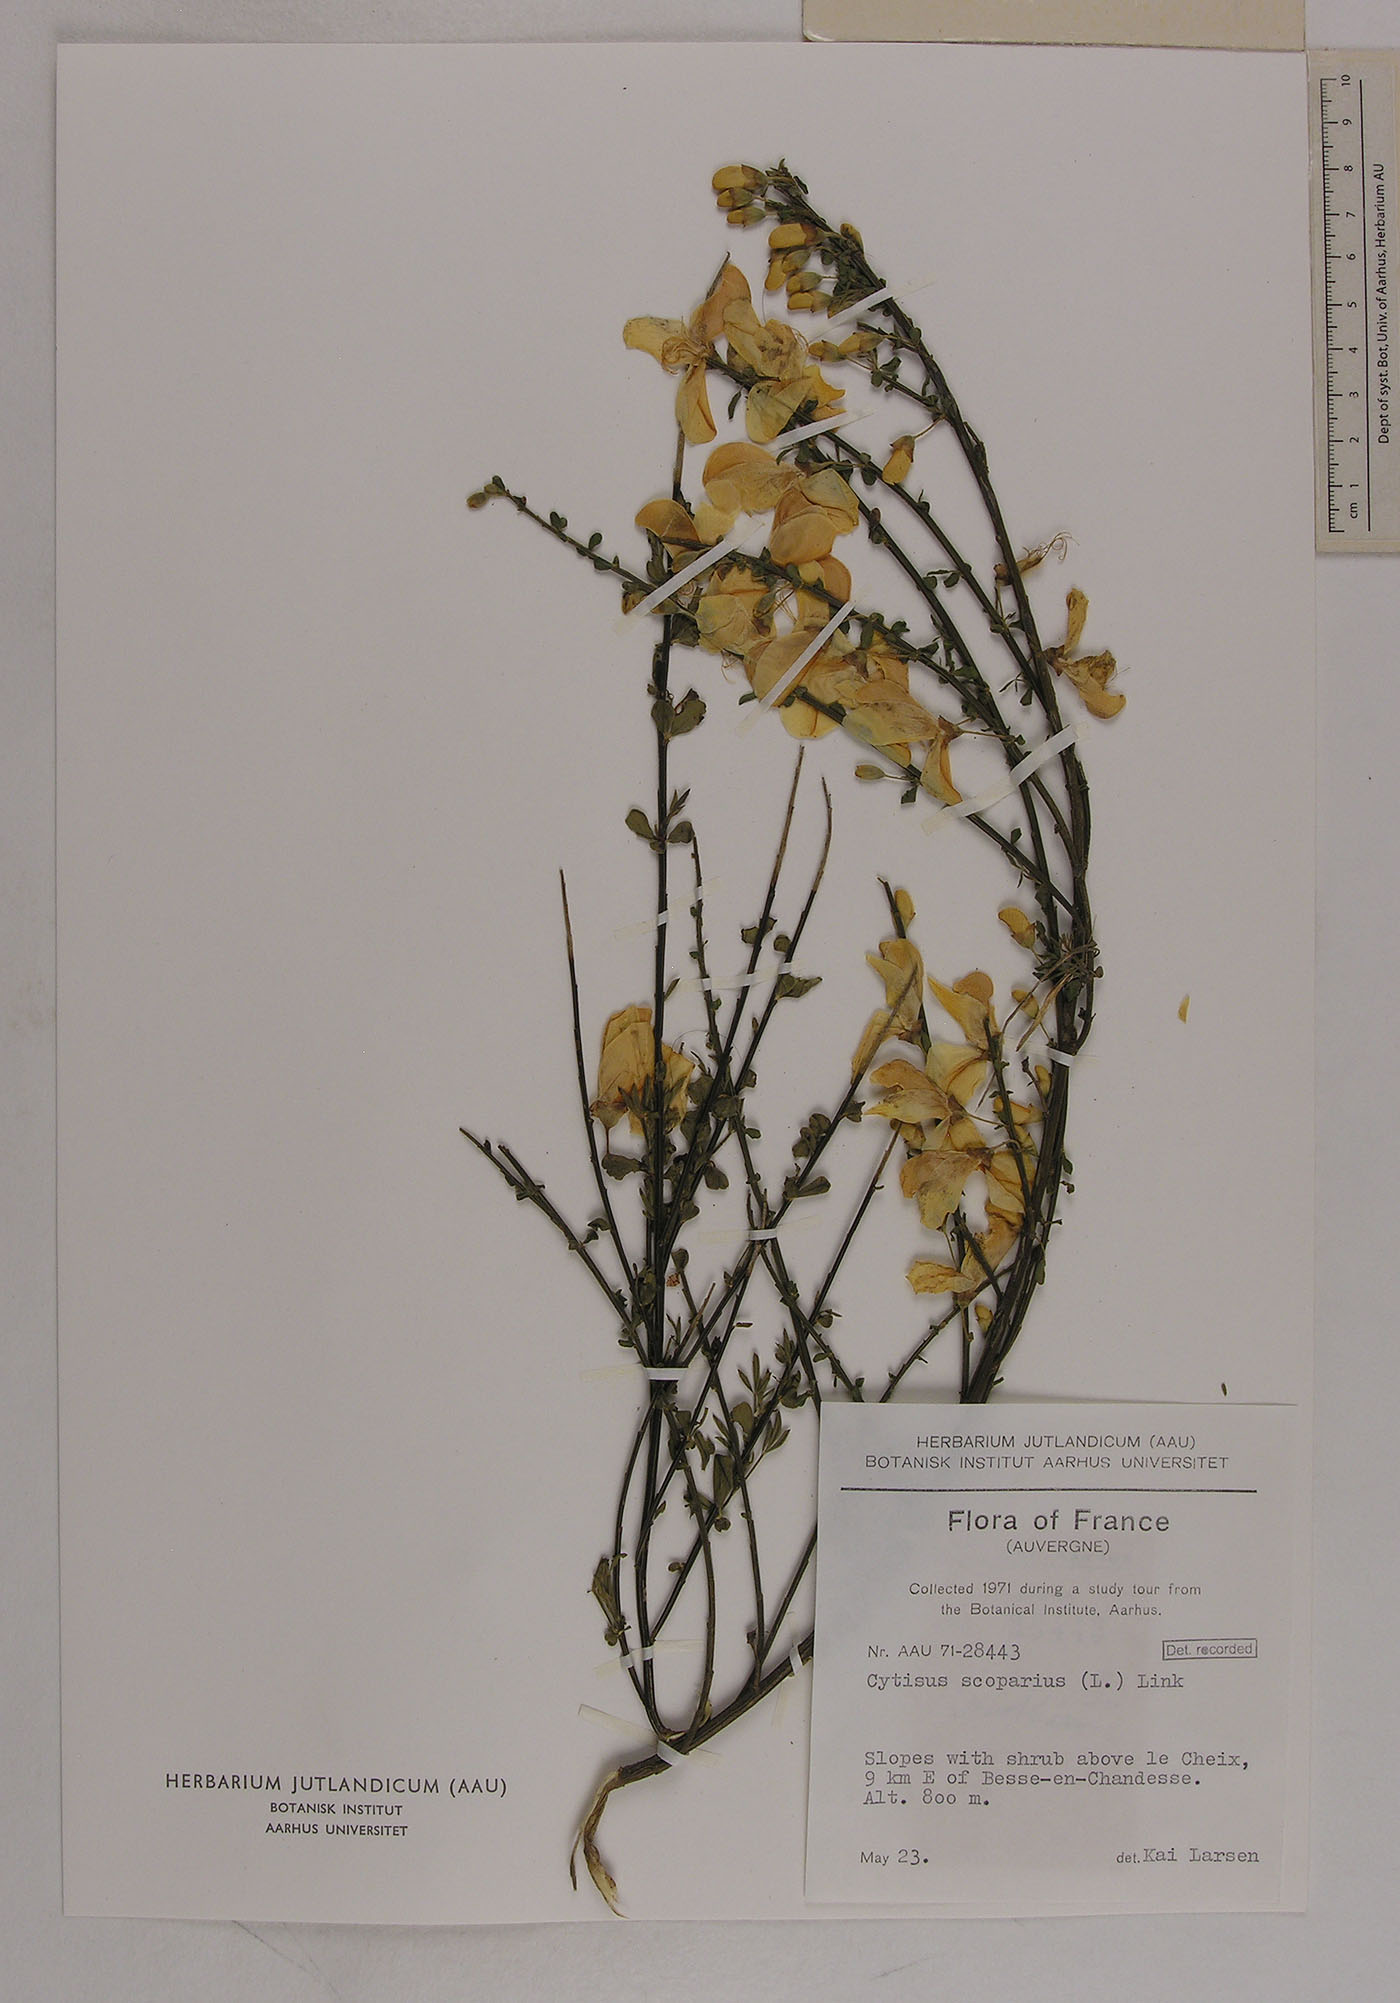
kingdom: Plantae
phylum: Tracheophyta
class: Magnoliopsida
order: Fabales
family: Fabaceae
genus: Cytisus
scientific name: Cytisus scoparius
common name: Scotch broom
